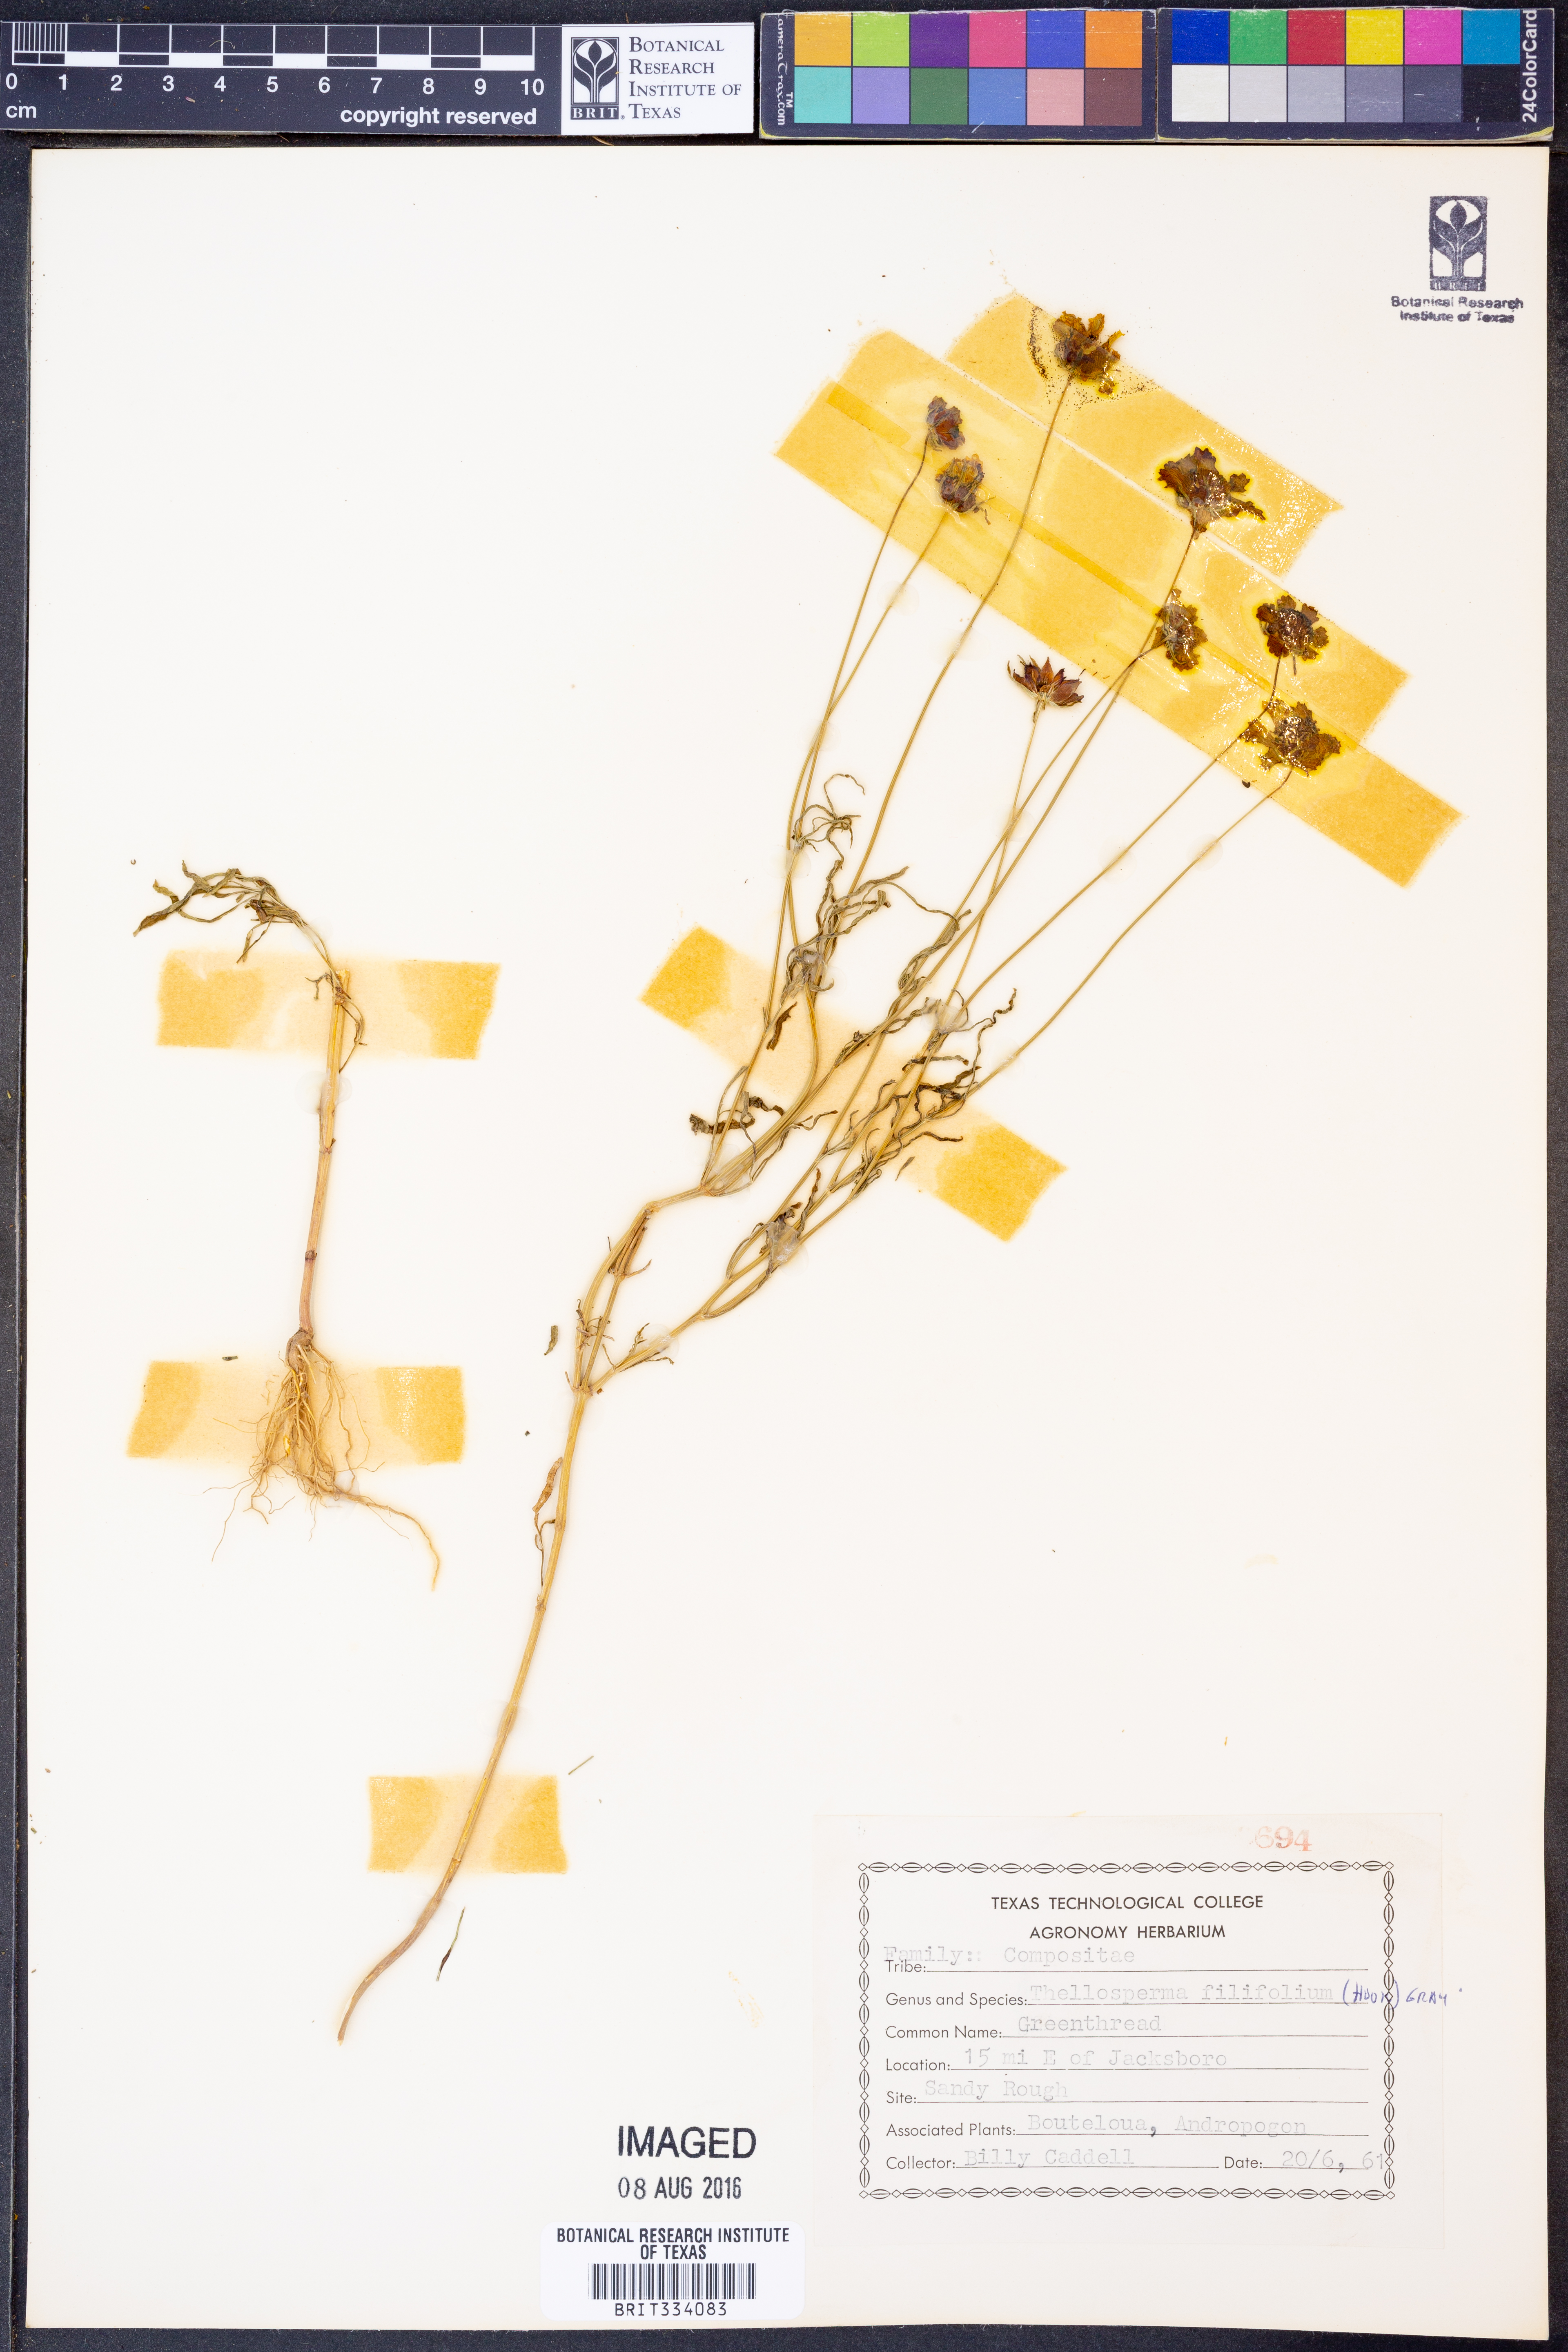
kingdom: Plantae
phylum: Tracheophyta
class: Magnoliopsida
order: Asterales
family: Asteraceae
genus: Thelesperma
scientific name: Thelesperma filifolium
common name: Stiff greenthread
